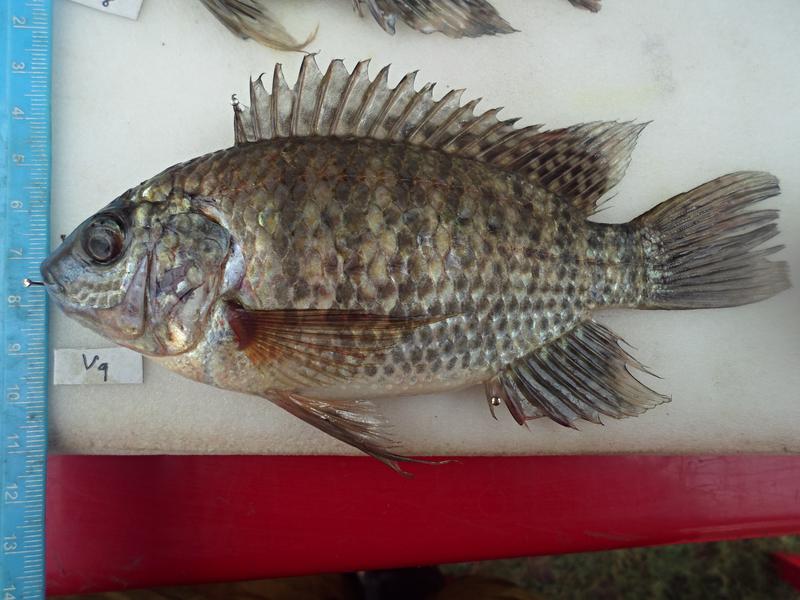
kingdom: Animalia
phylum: Chordata
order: Perciformes
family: Cichlidae
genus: Oreochromis
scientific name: Oreochromis leucostictus
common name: Blue spotted tilapia
